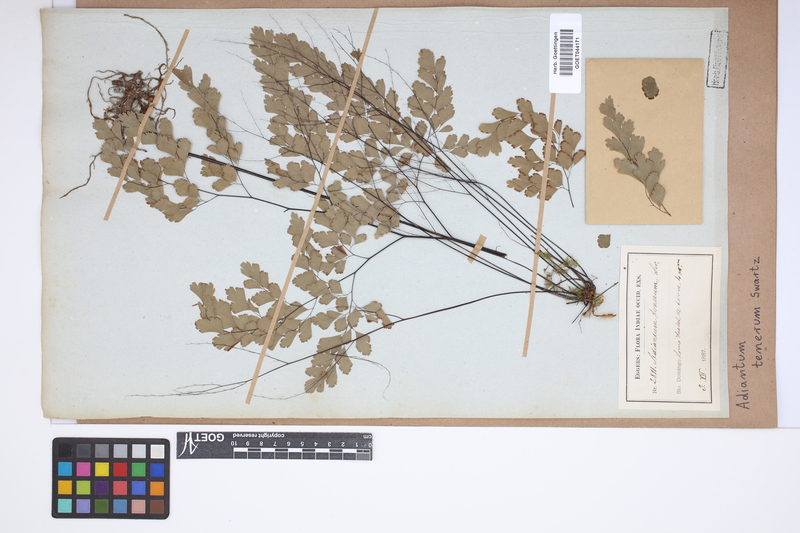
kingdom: Plantae
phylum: Tracheophyta
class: Polypodiopsida
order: Polypodiales
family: Pteridaceae
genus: Adiantum
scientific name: Adiantum tenerum
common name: Fan maidenhair
